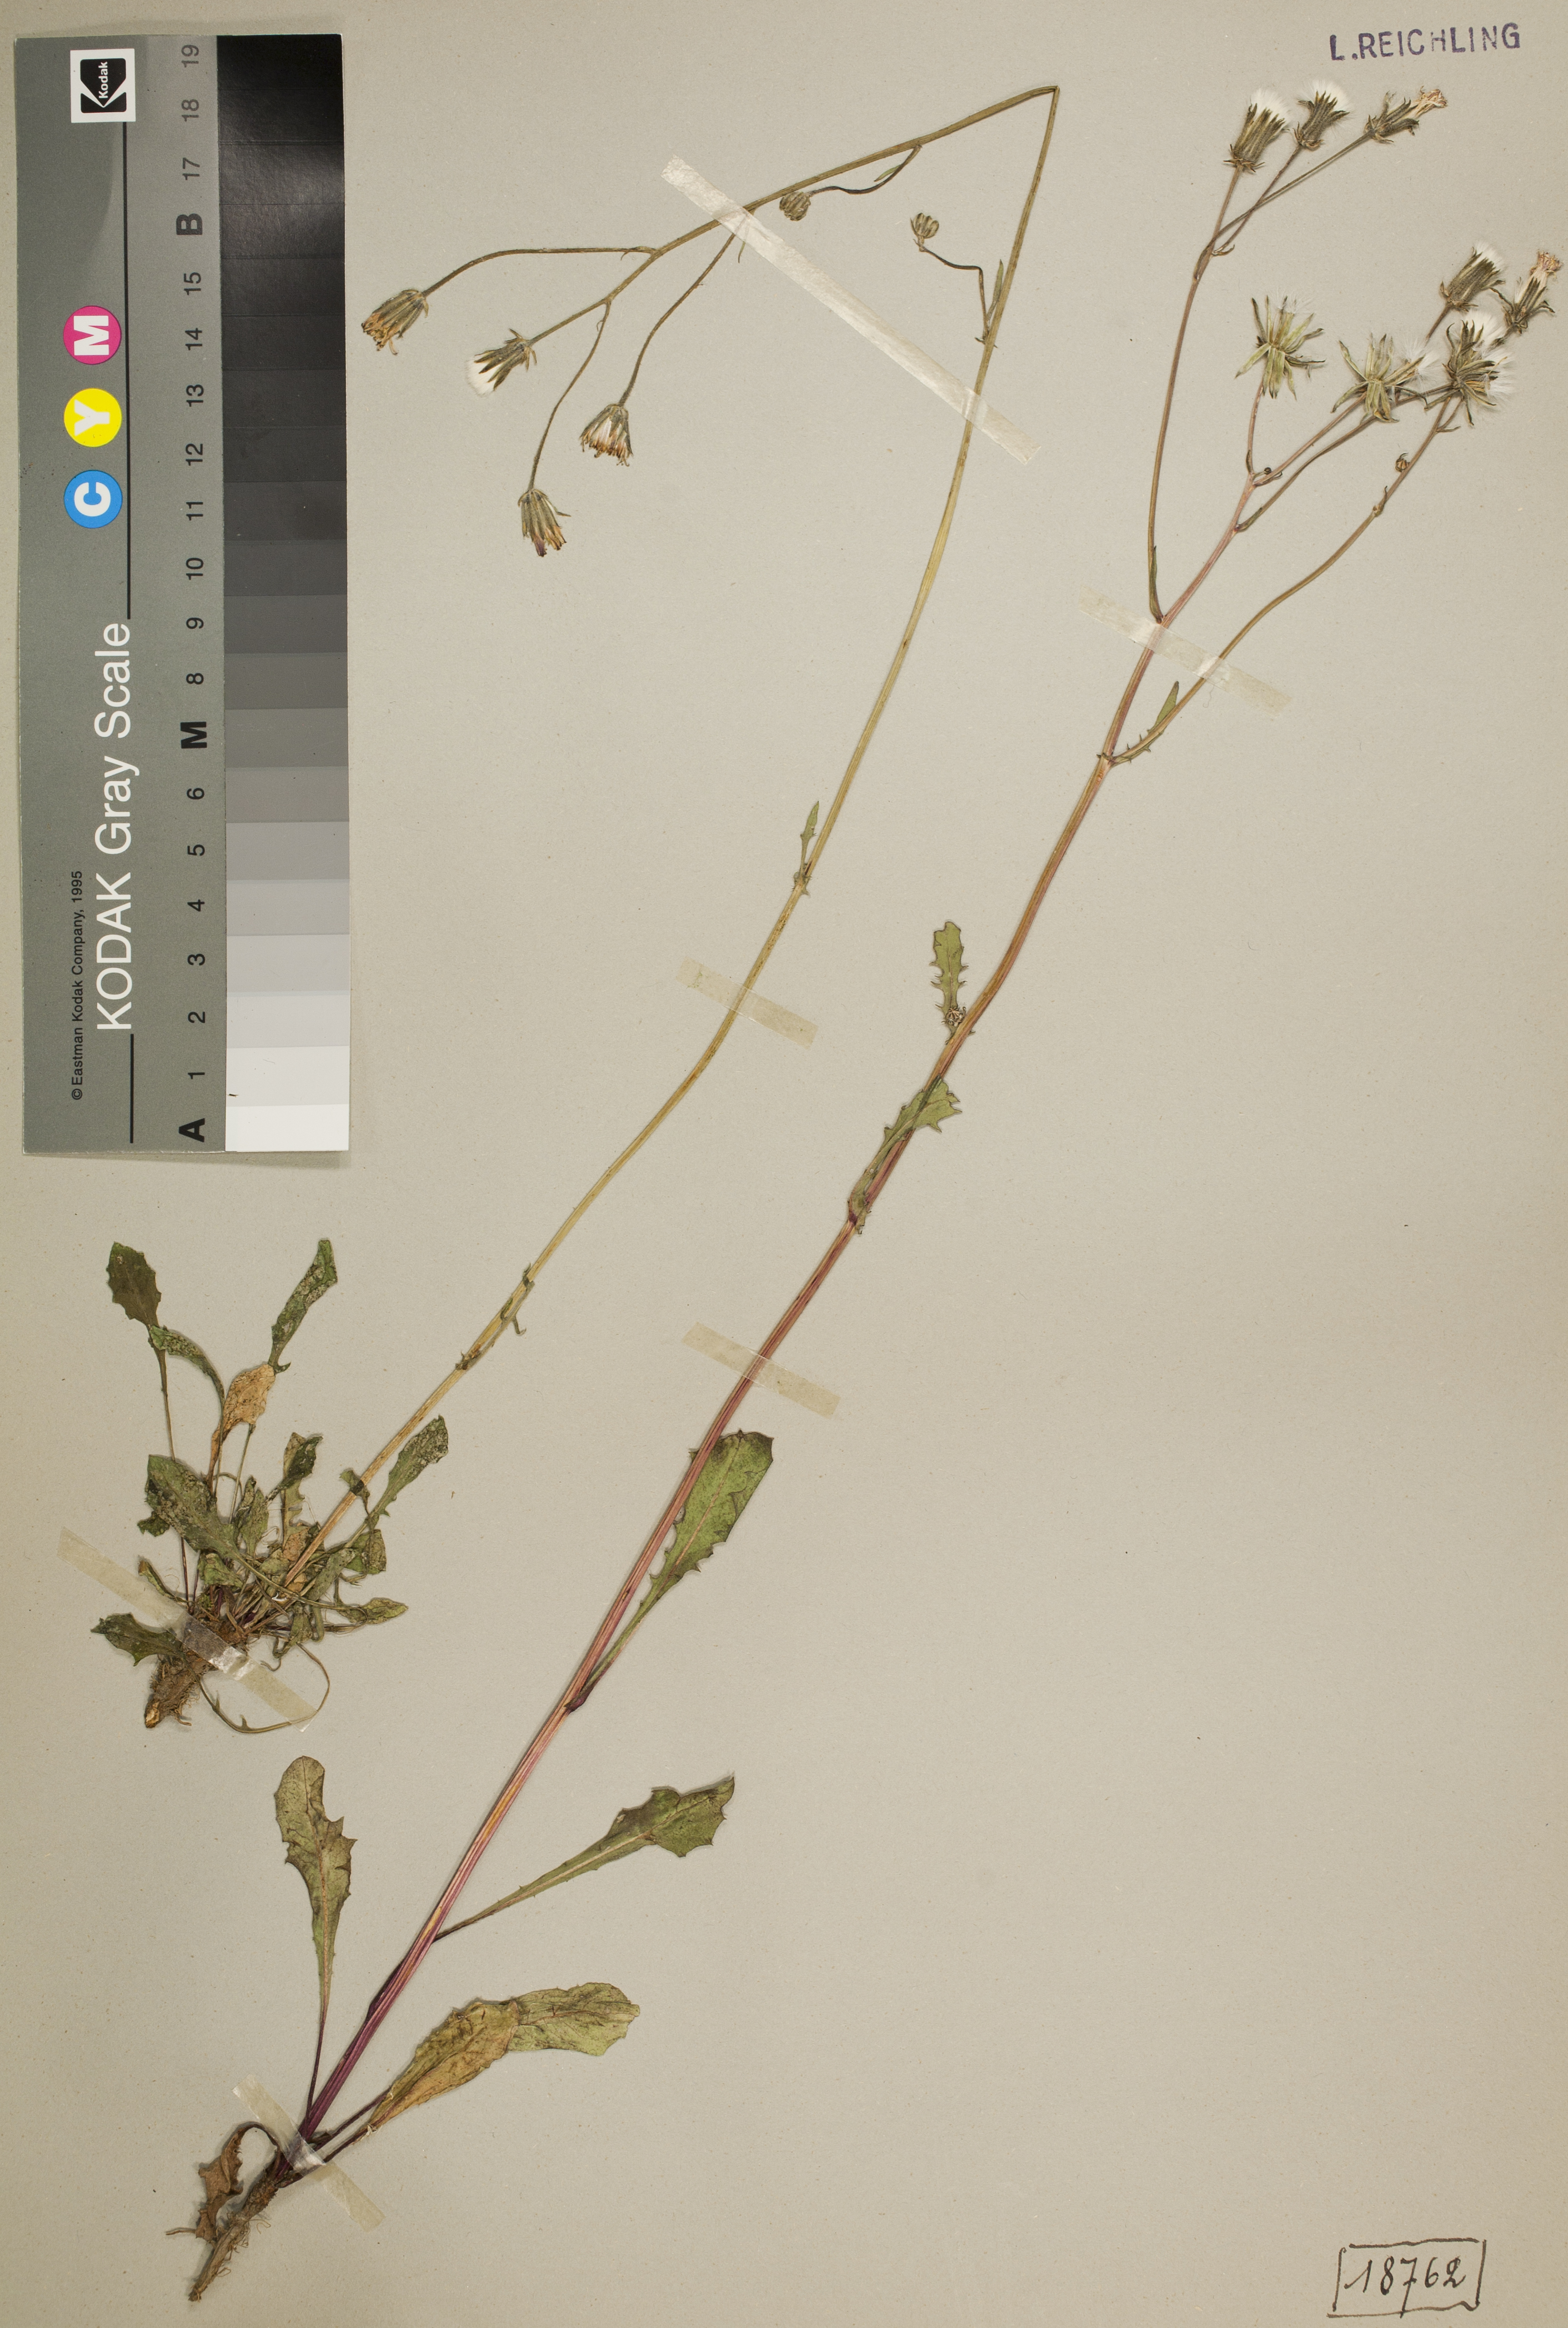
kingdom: Plantae
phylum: Tracheophyta
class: Magnoliopsida
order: Asterales
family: Asteraceae
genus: Crepis
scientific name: Crepis vesicaria
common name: Beaked hawksbeard
